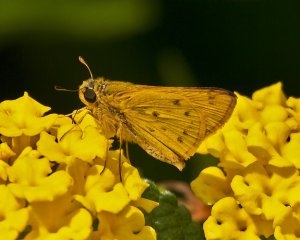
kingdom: Animalia
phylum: Arthropoda
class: Insecta
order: Lepidoptera
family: Hesperiidae
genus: Hylephila
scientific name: Hylephila phyleus
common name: Fiery Skipper
